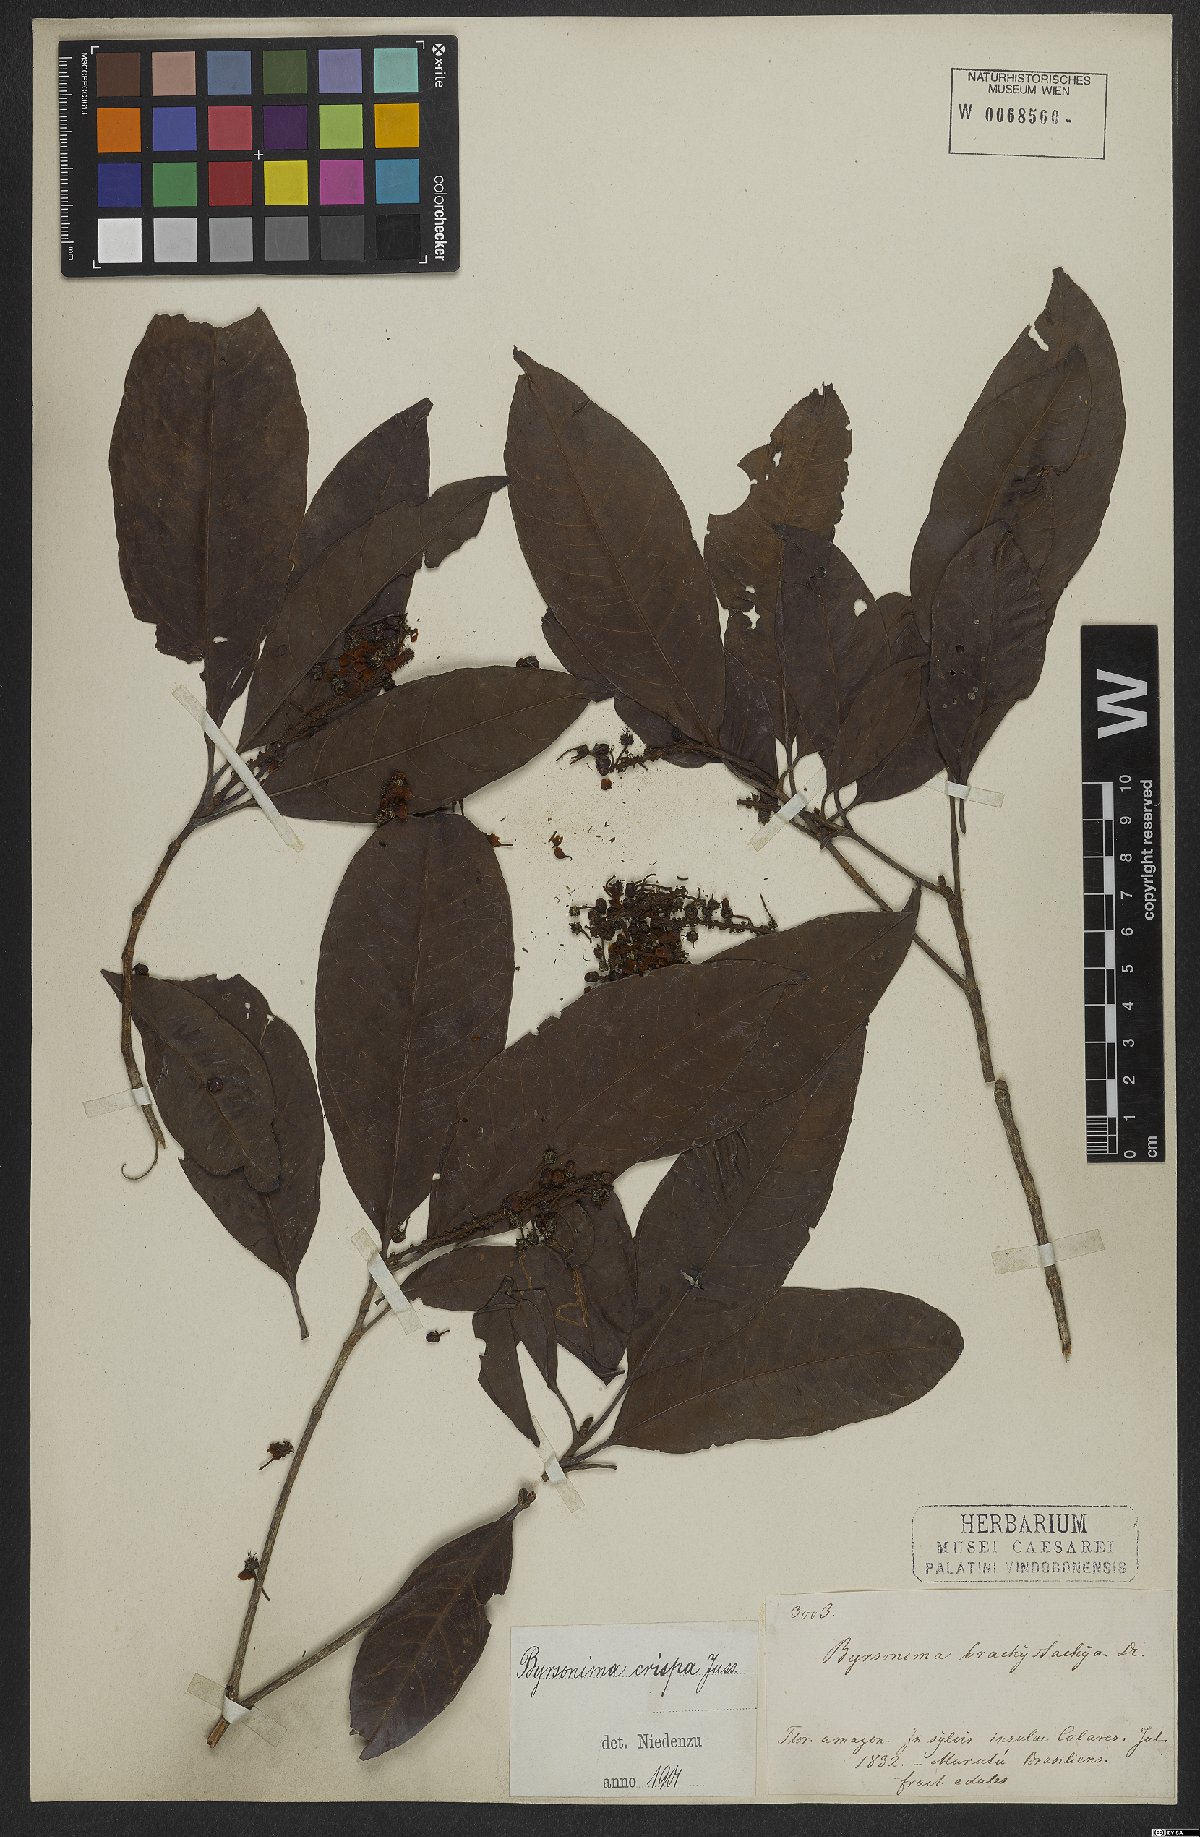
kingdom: Plantae
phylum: Tracheophyta
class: Magnoliopsida
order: Malpighiales
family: Malpighiaceae
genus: Byrsonima
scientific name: Byrsonima crispa
